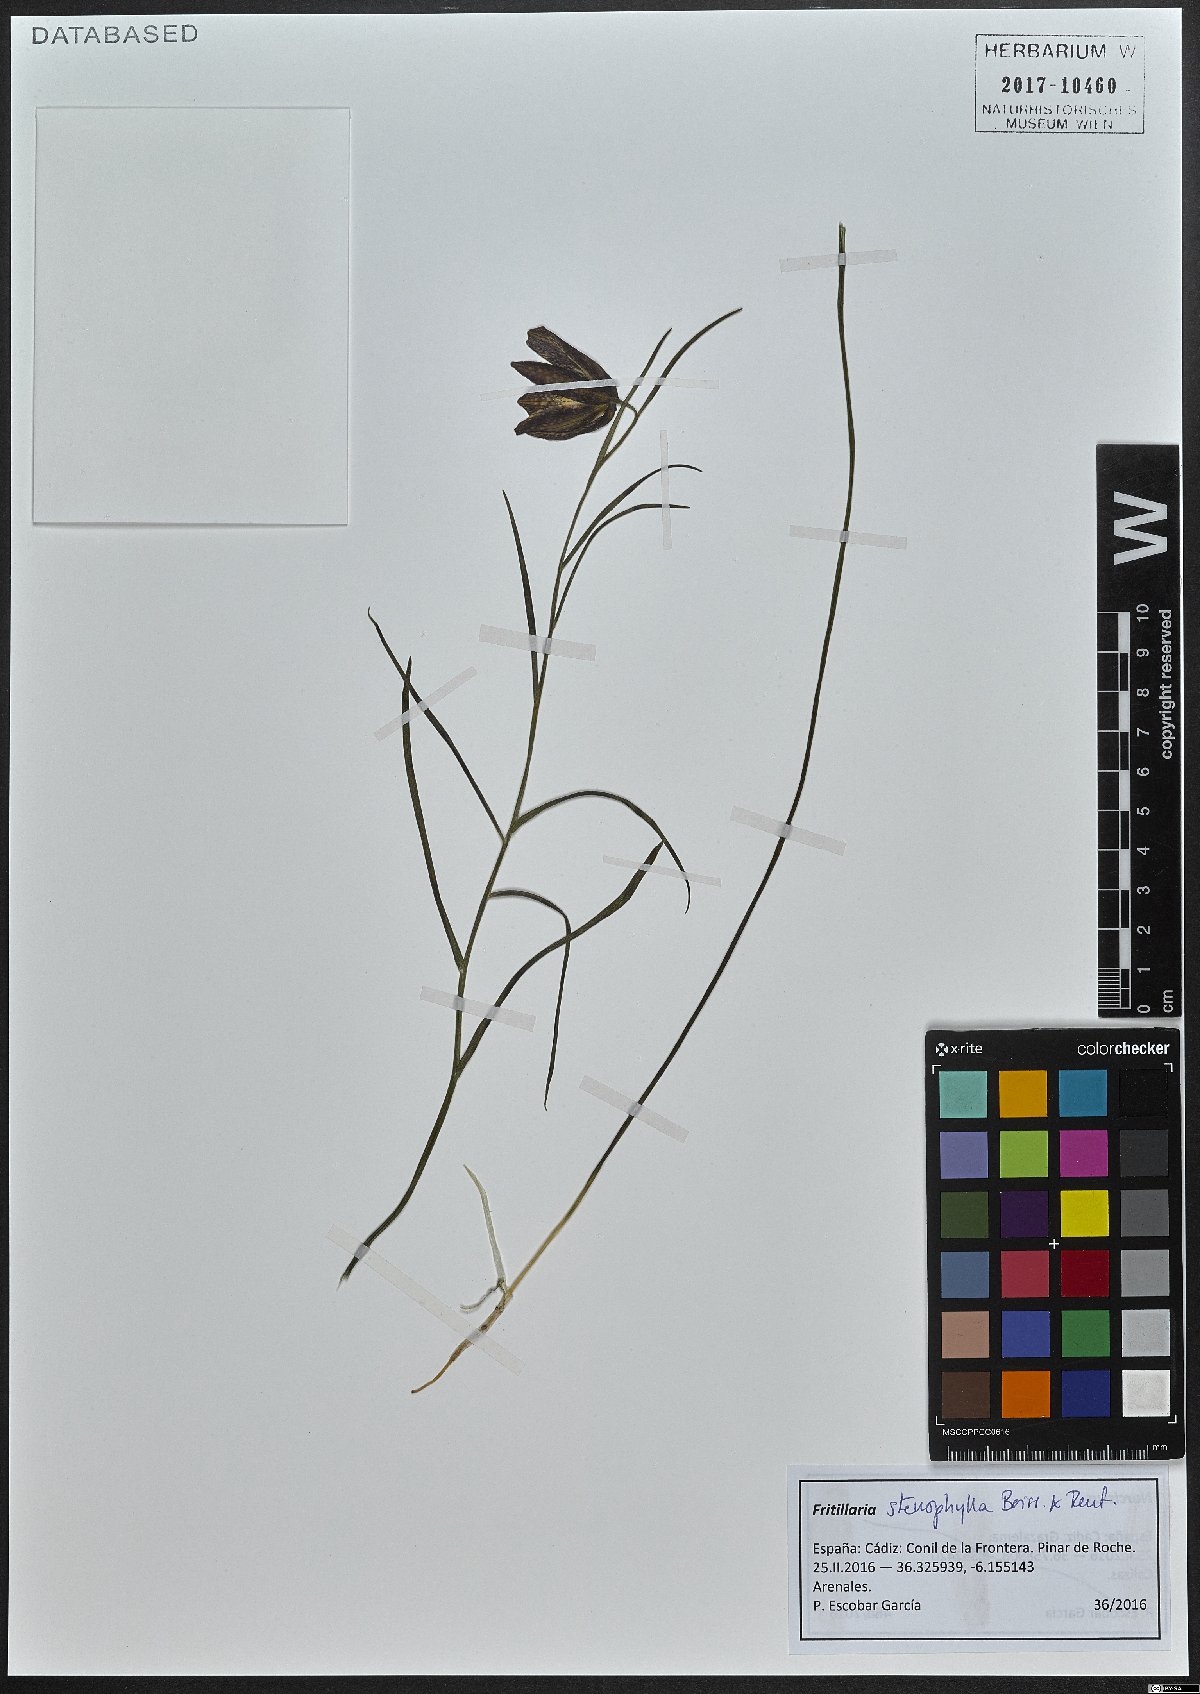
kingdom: Plantae
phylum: Tracheophyta
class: Liliopsida
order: Liliales
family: Liliaceae
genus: Fritillaria
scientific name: Fritillaria lusitanica
